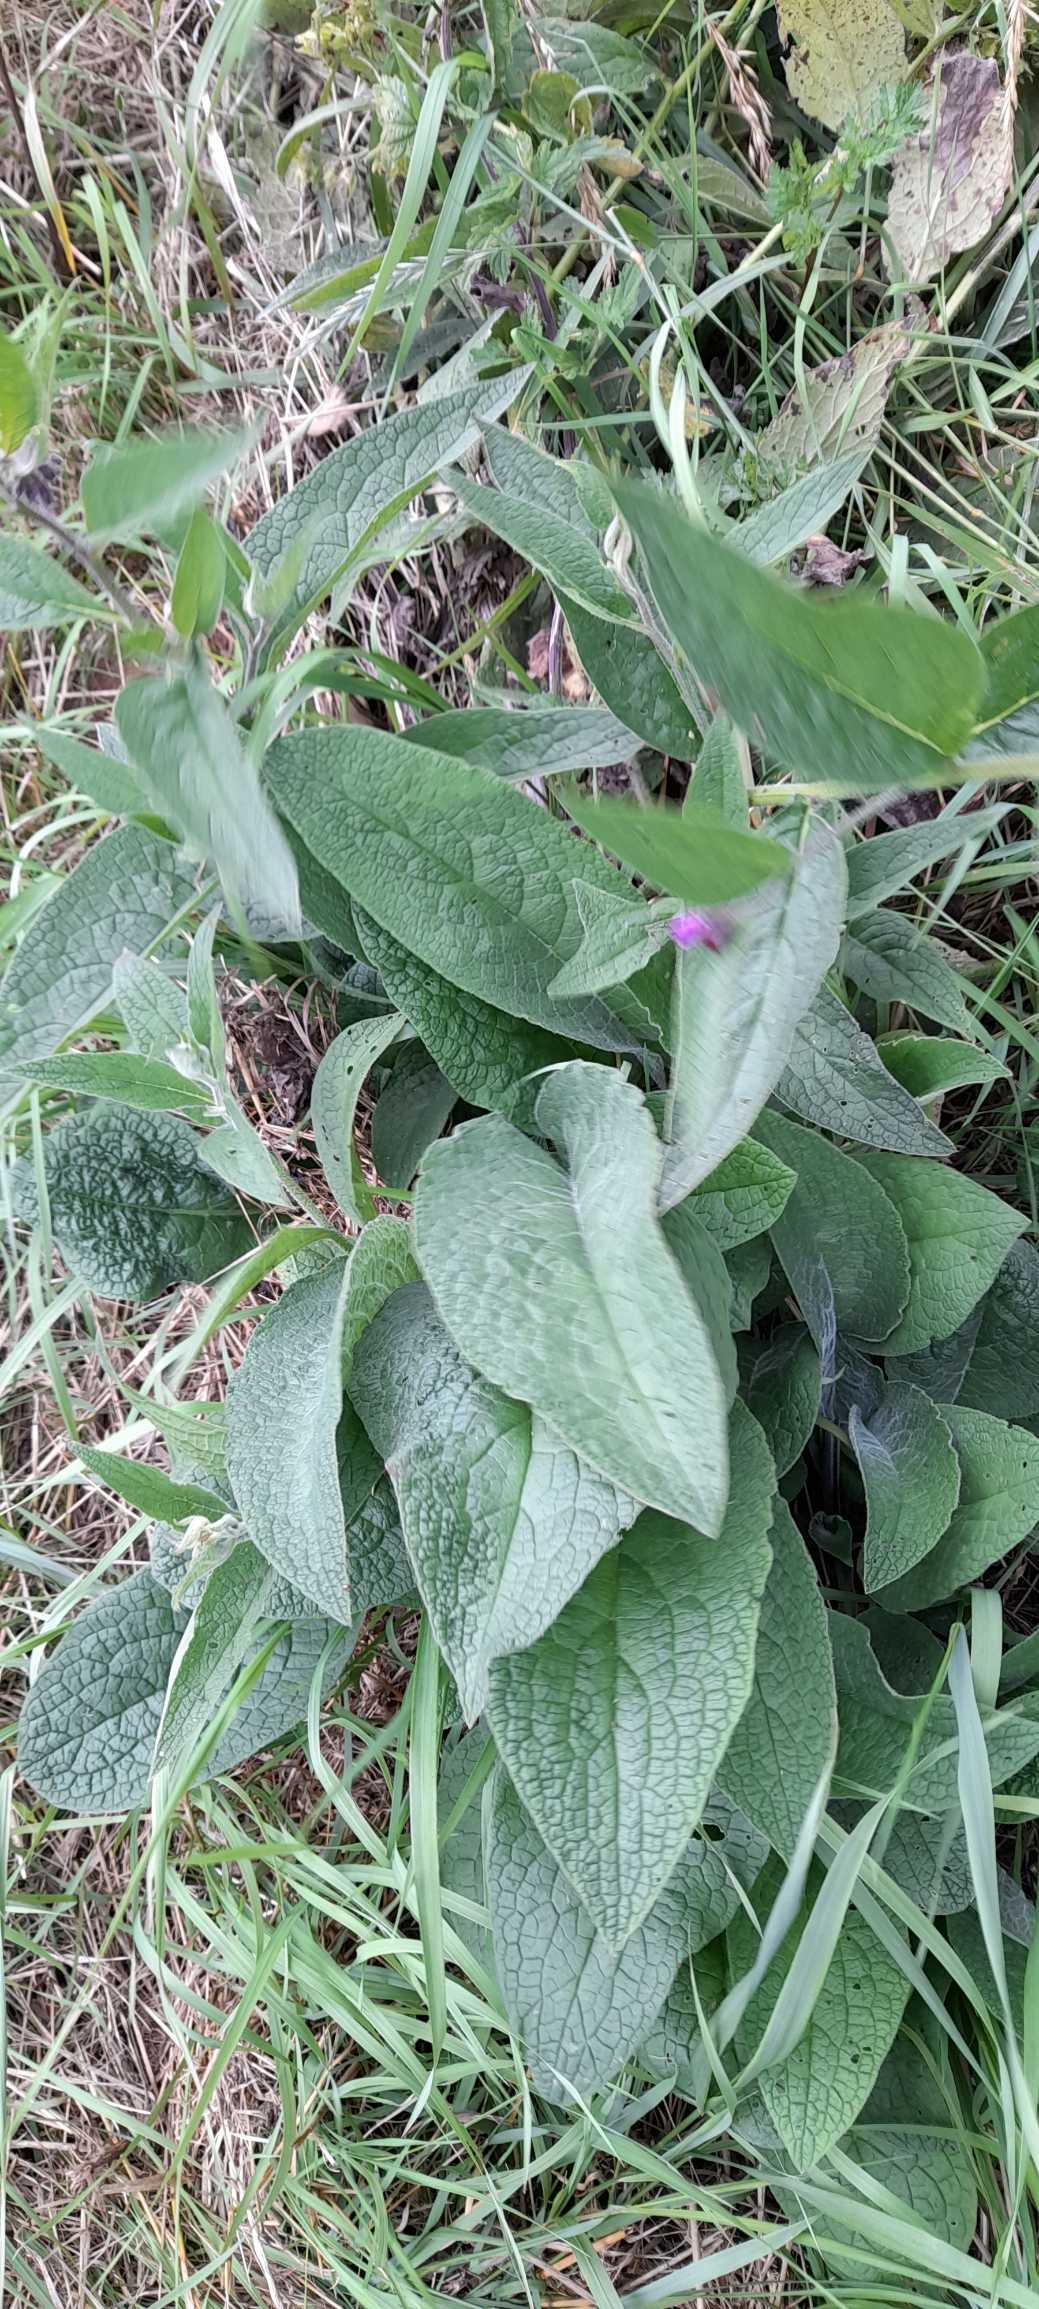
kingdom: Plantae
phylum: Tracheophyta
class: Magnoliopsida
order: Boraginales
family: Boraginaceae
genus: Symphytum
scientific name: Symphytum uplandicum
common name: Foder-kulsukker
